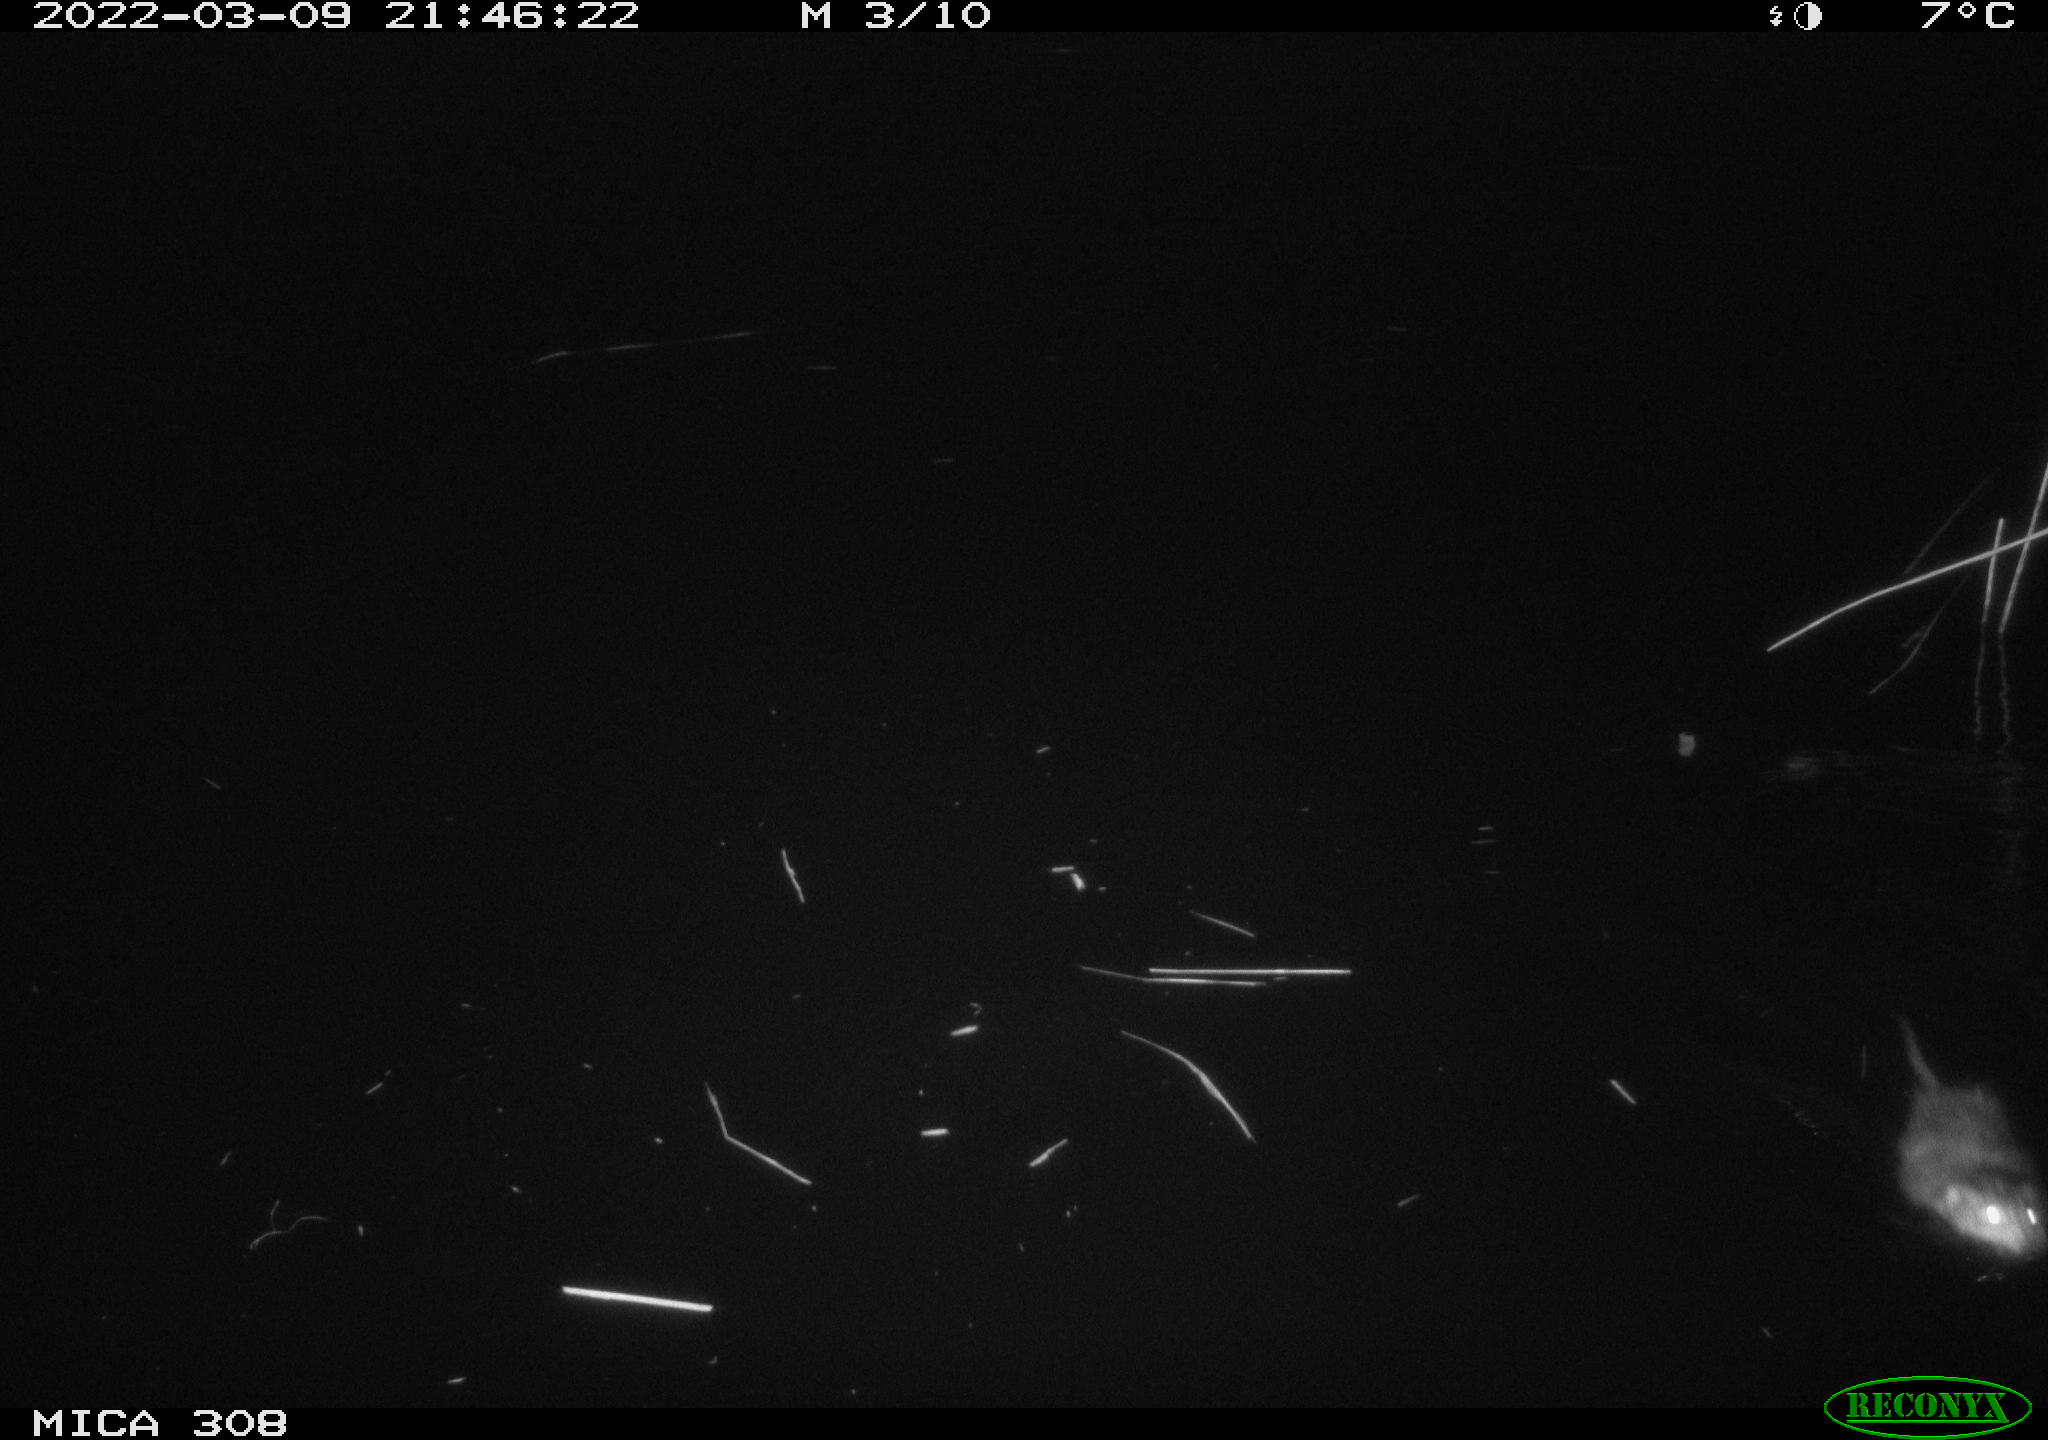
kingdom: Animalia
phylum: Chordata
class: Mammalia
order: Rodentia
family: Cricetidae
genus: Ondatra
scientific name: Ondatra zibethicus
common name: Muskrat
